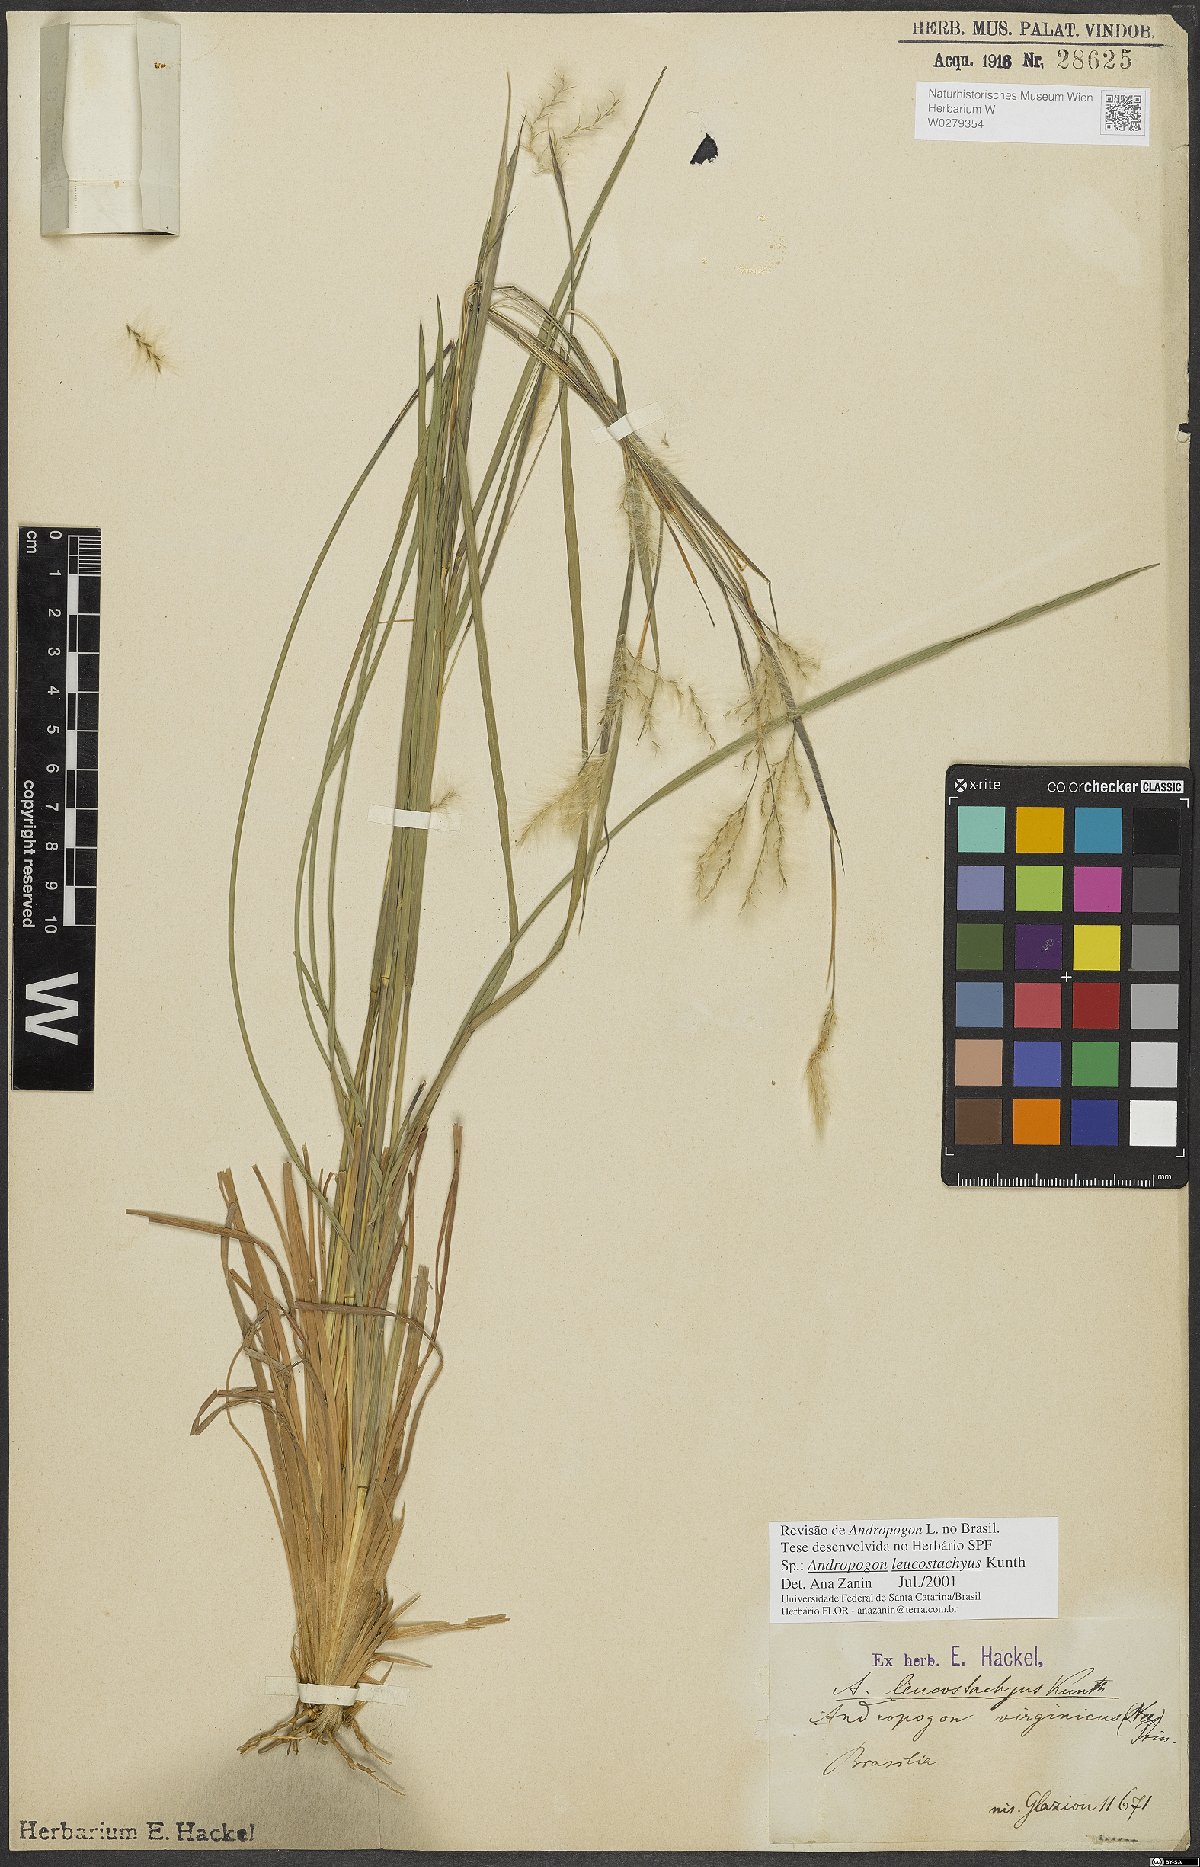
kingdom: Plantae
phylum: Tracheophyta
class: Liliopsida
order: Poales
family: Poaceae
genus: Andropogon
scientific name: Andropogon leucostachyus
